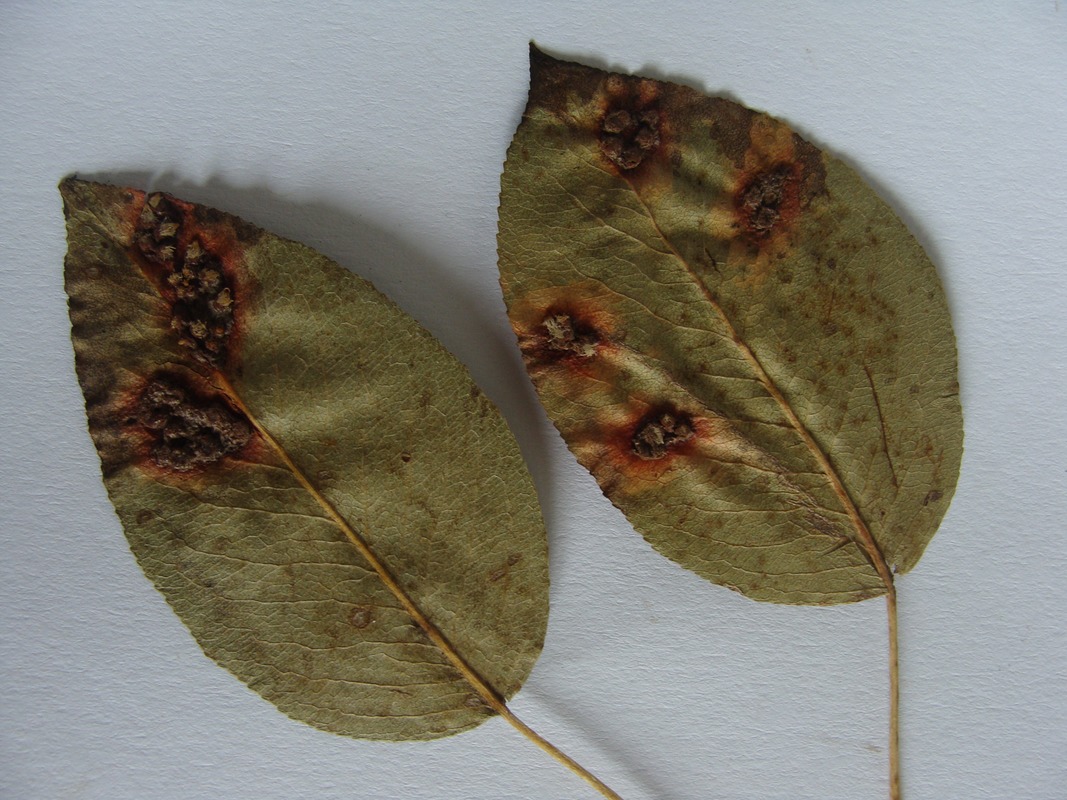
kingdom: Fungi
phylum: Basidiomycota
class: Pucciniomycetes
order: Pucciniales
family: Gymnosporangiaceae
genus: Gymnosporangium
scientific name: Gymnosporangium sabinae
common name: Pear trellis rust fungus
